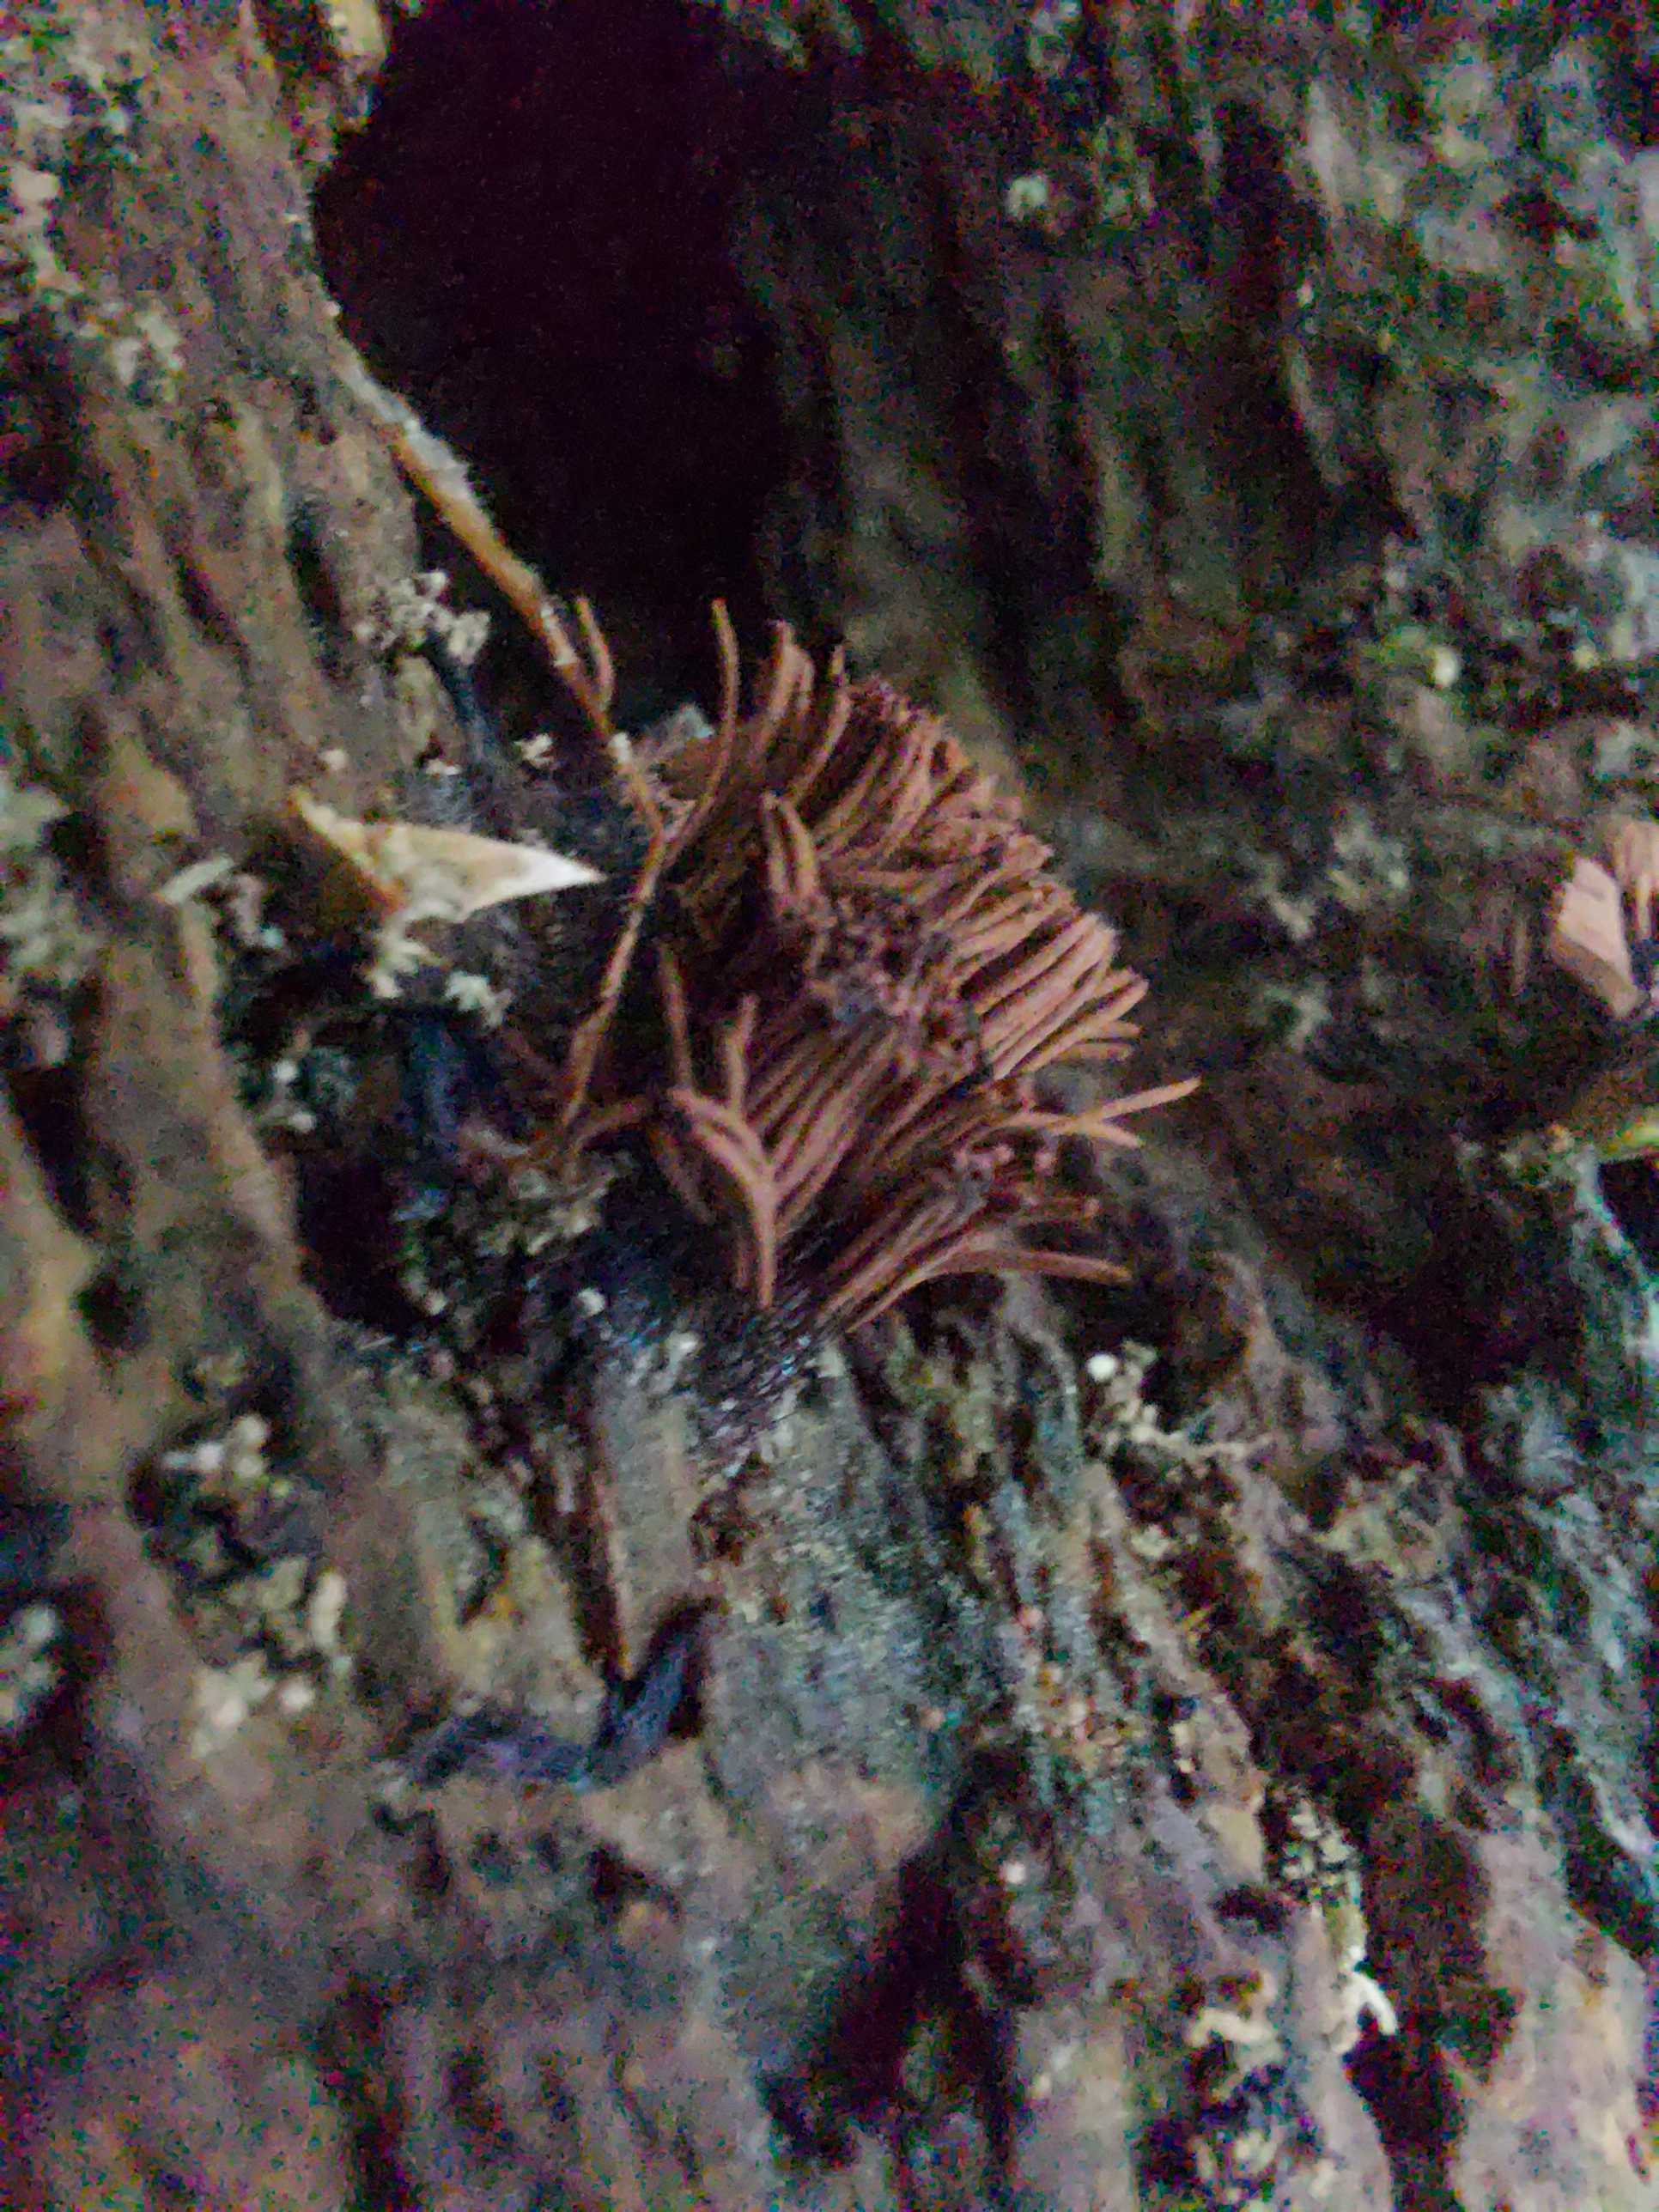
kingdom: Protozoa
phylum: Mycetozoa
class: Myxomycetes
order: Stemonitidales
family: Stemonitidaceae
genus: Stemonitis
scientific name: Stemonitis
